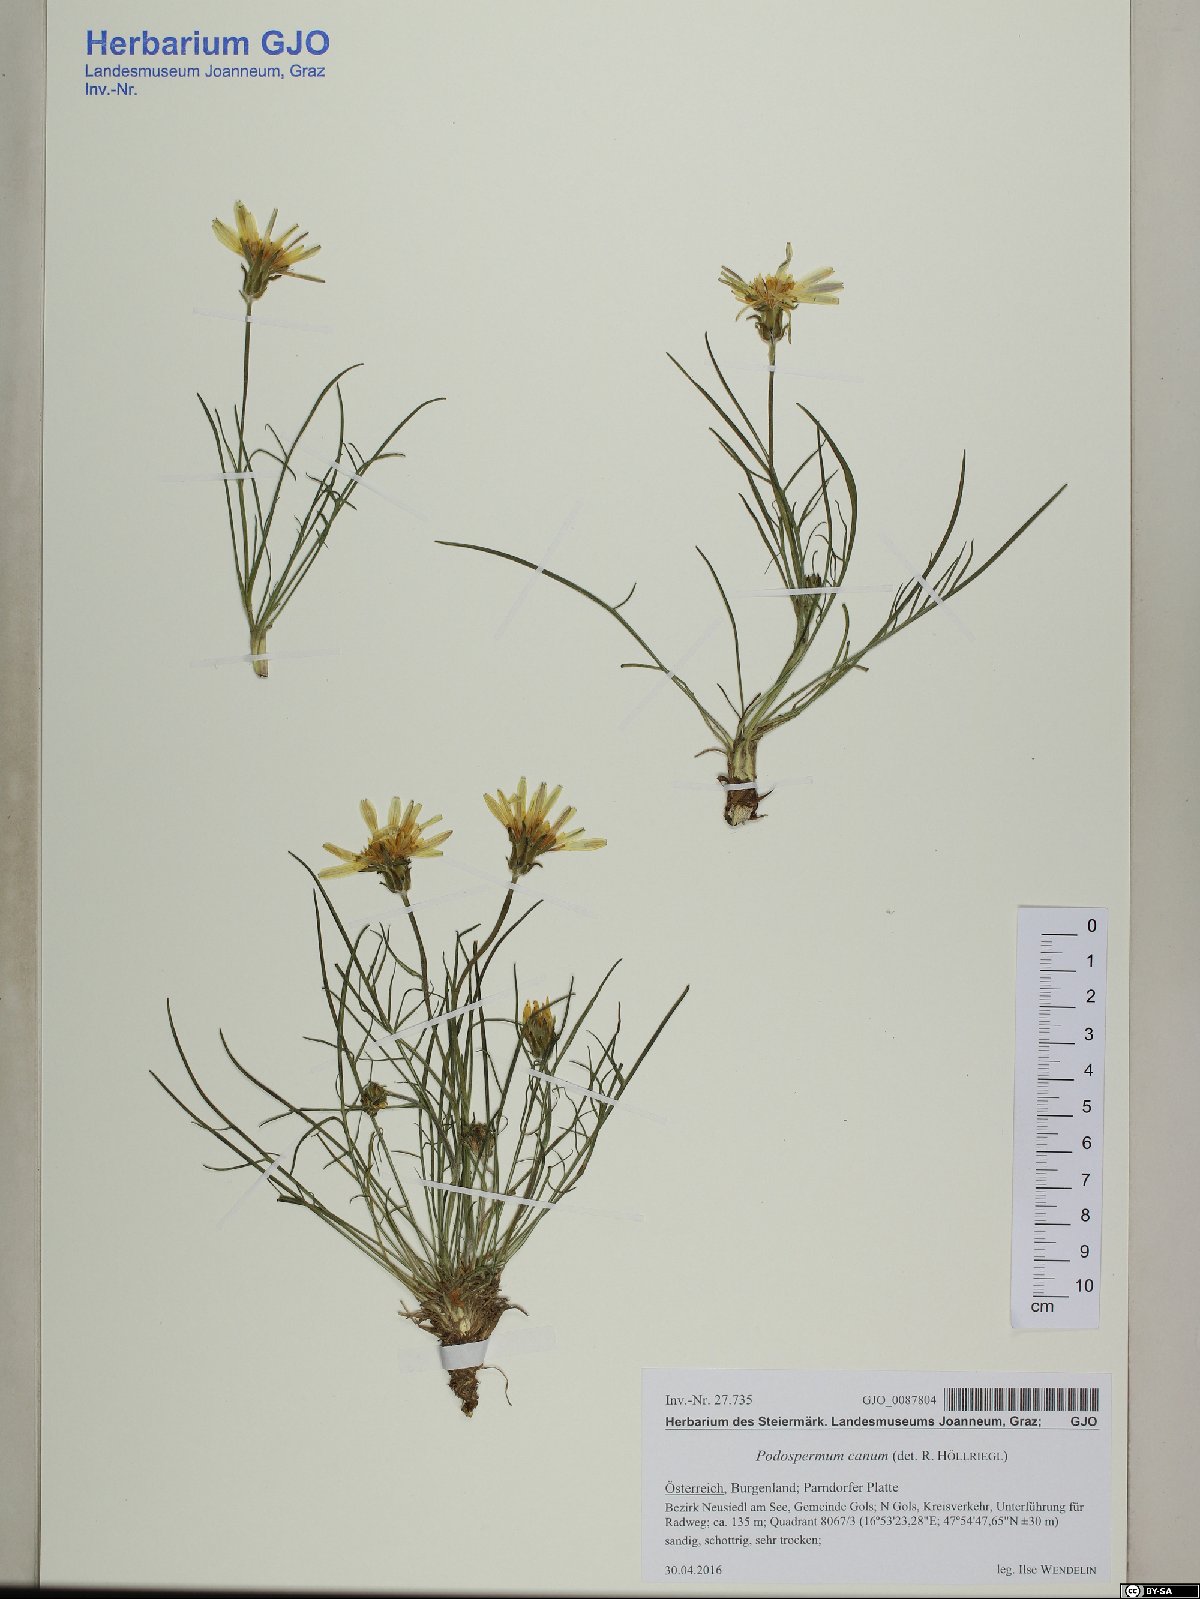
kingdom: Plantae
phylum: Tracheophyta
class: Magnoliopsida
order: Asterales
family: Asteraceae
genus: Scorzonera
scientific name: Scorzonera cana
